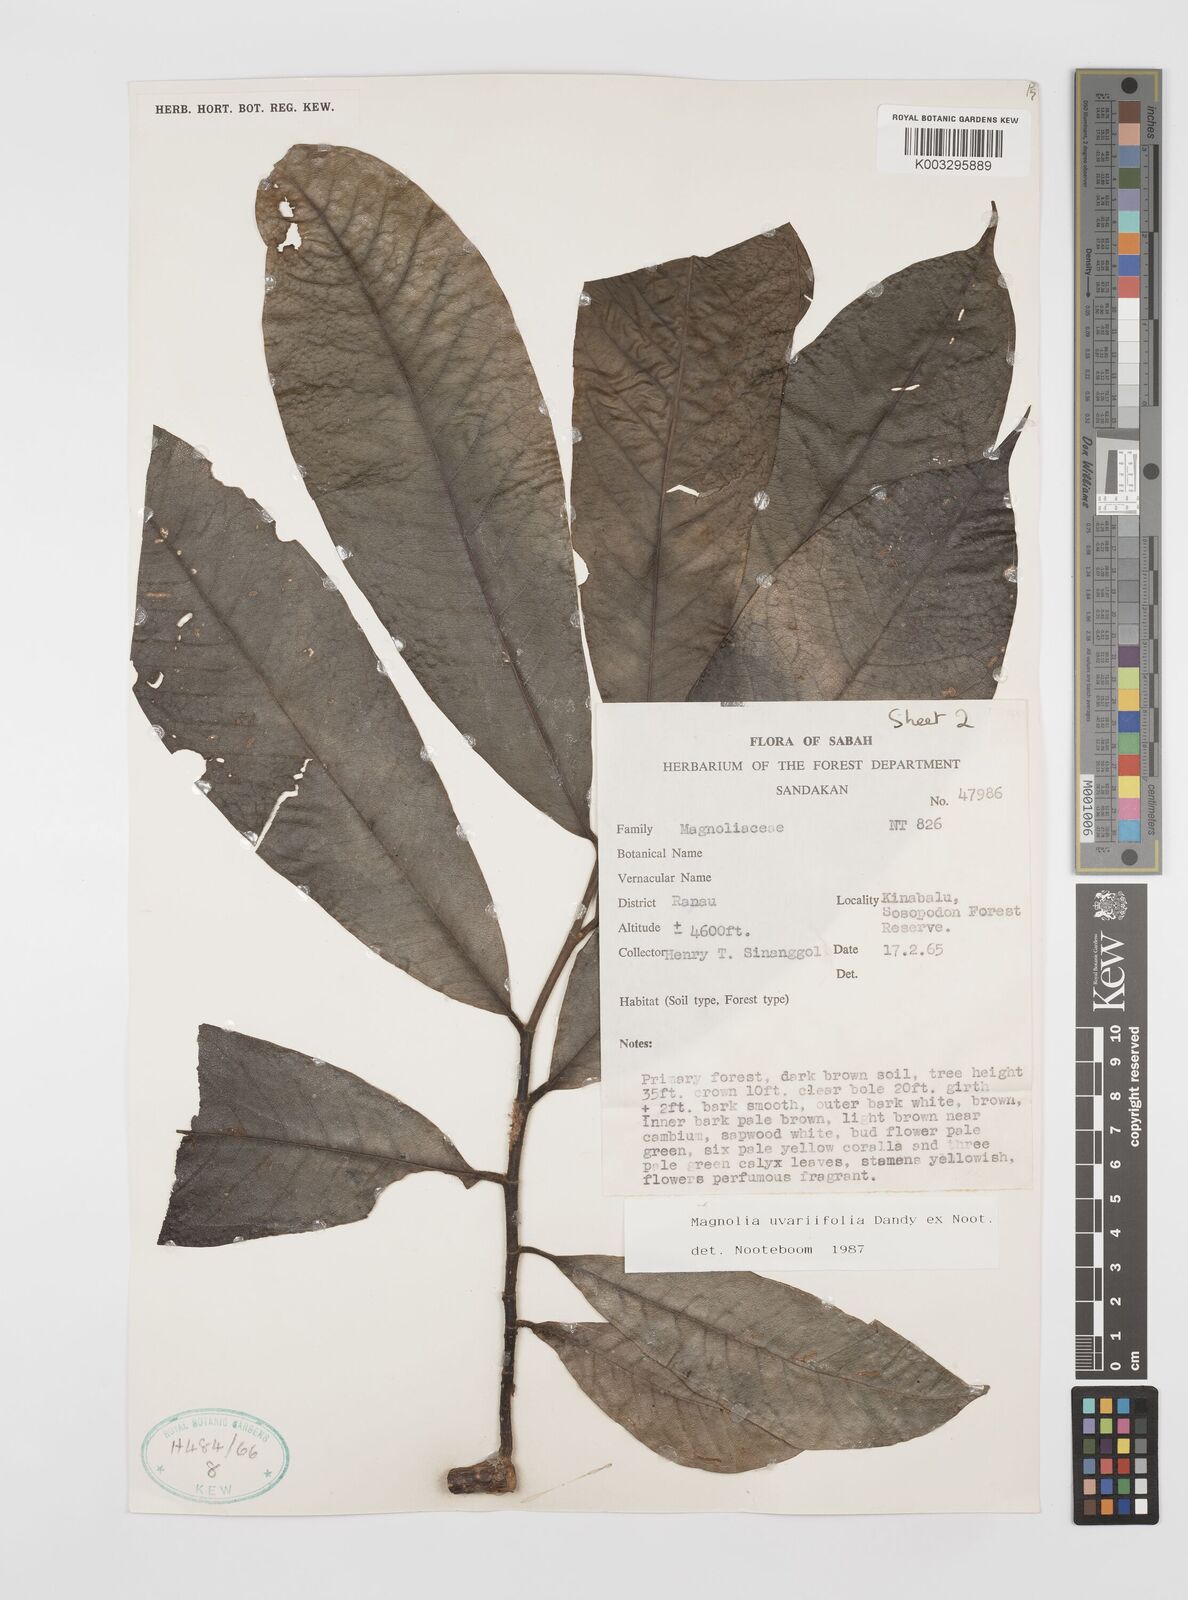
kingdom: Plantae
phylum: Tracheophyta
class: Magnoliopsida
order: Magnoliales
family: Magnoliaceae
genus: Magnolia
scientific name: Magnolia macklottii
